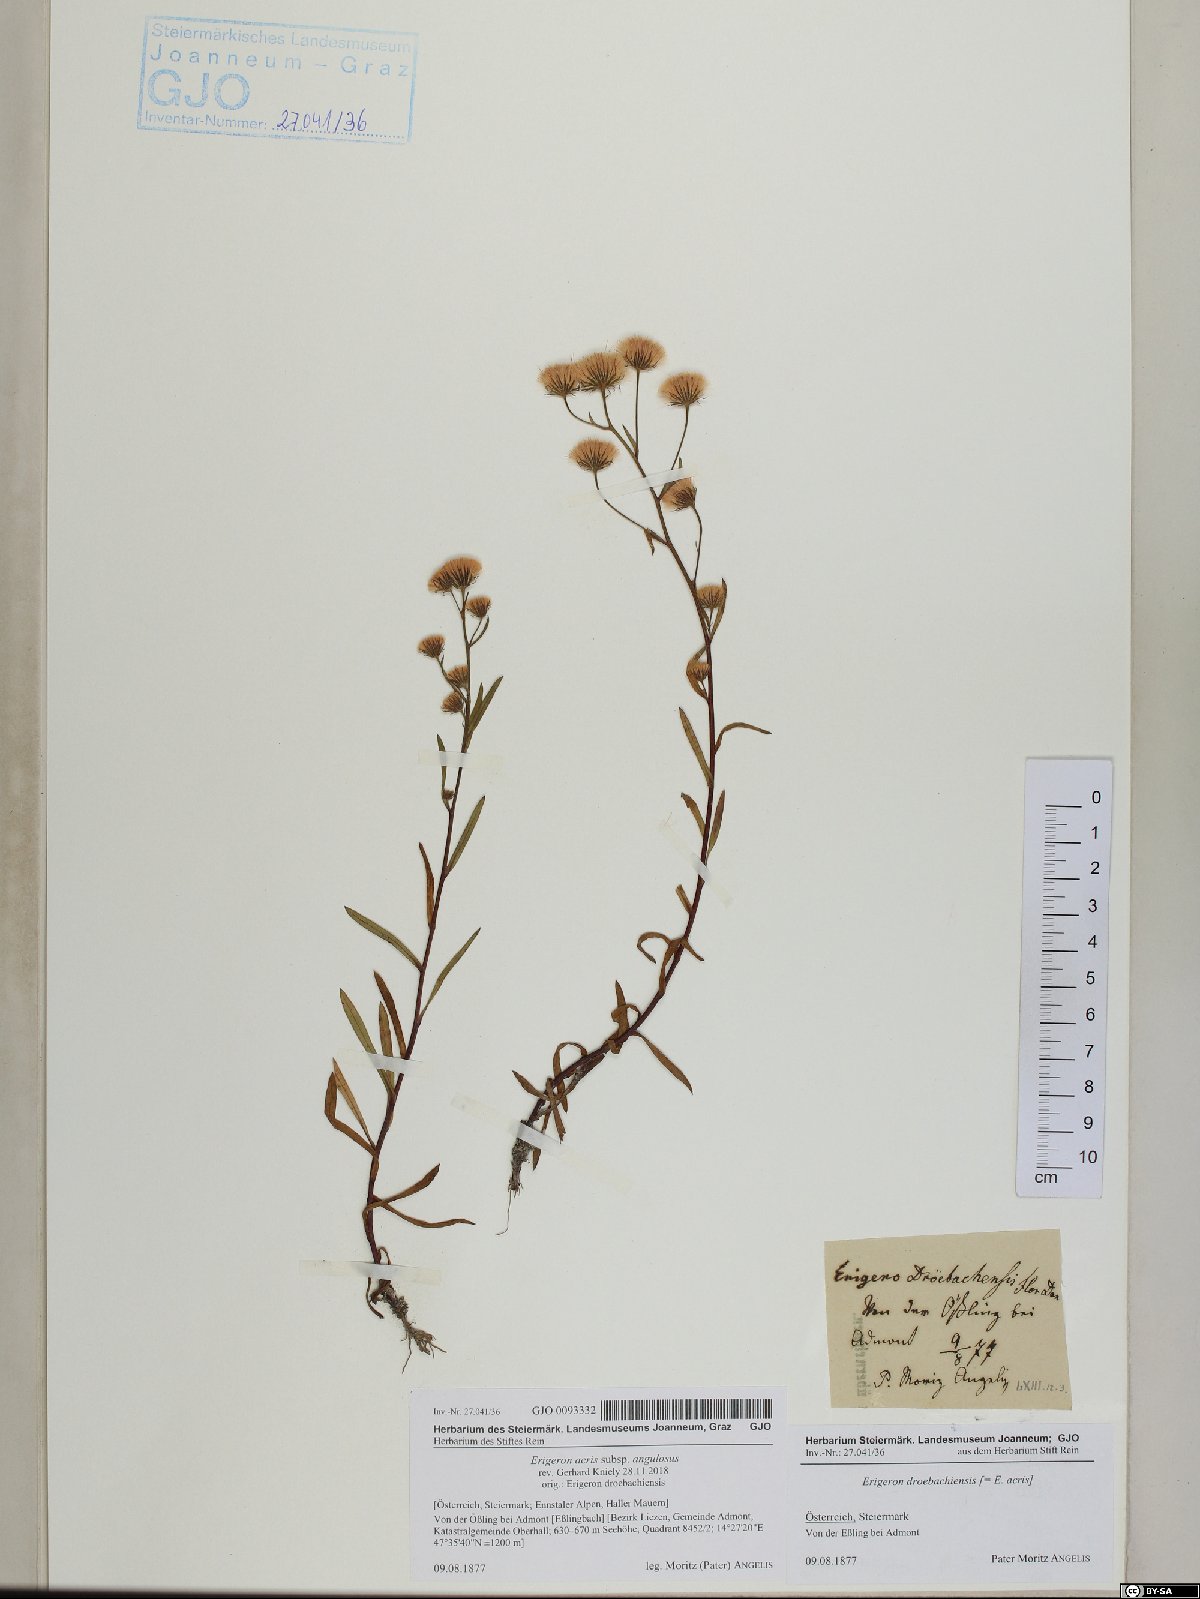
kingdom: Plantae
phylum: Tracheophyta
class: Magnoliopsida
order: Asterales
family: Asteraceae
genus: Erigeron
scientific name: Erigeron angulosus
